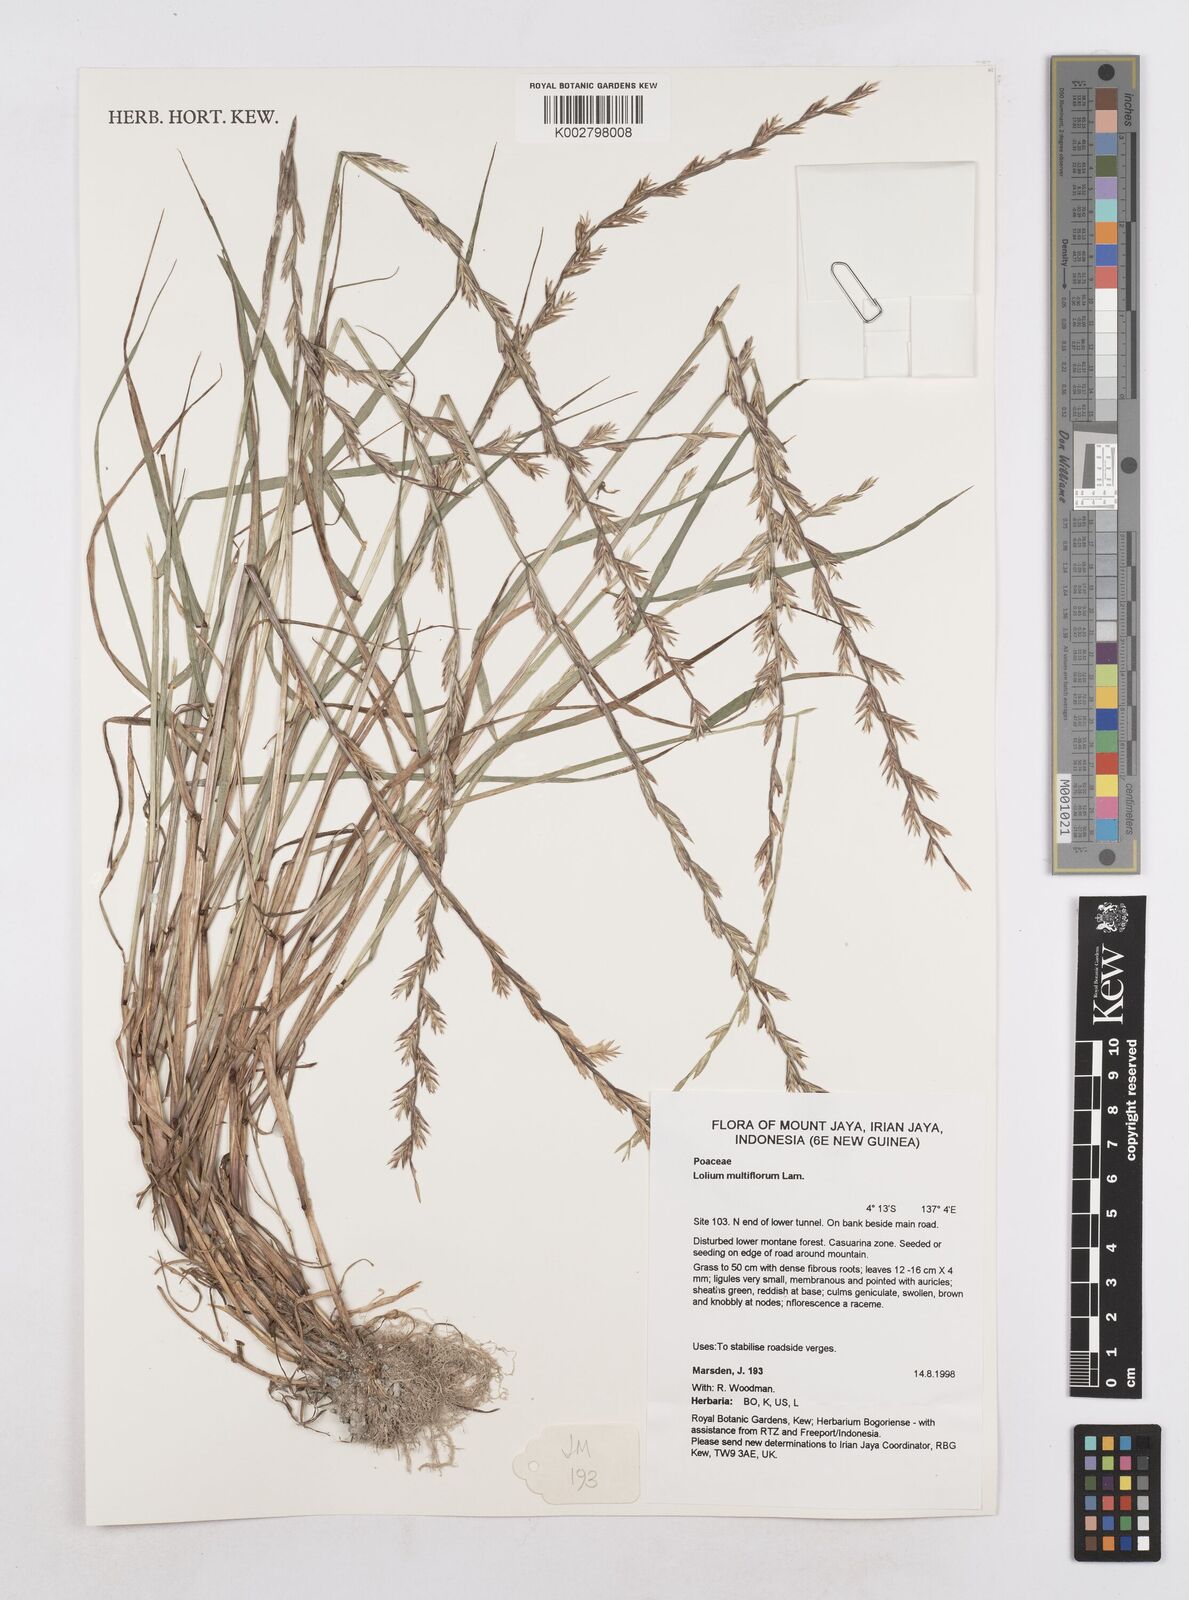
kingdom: Plantae
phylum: Tracheophyta
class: Liliopsida
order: Poales
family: Poaceae
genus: Lolium
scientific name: Lolium multiflorum
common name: Annual ryegrass
